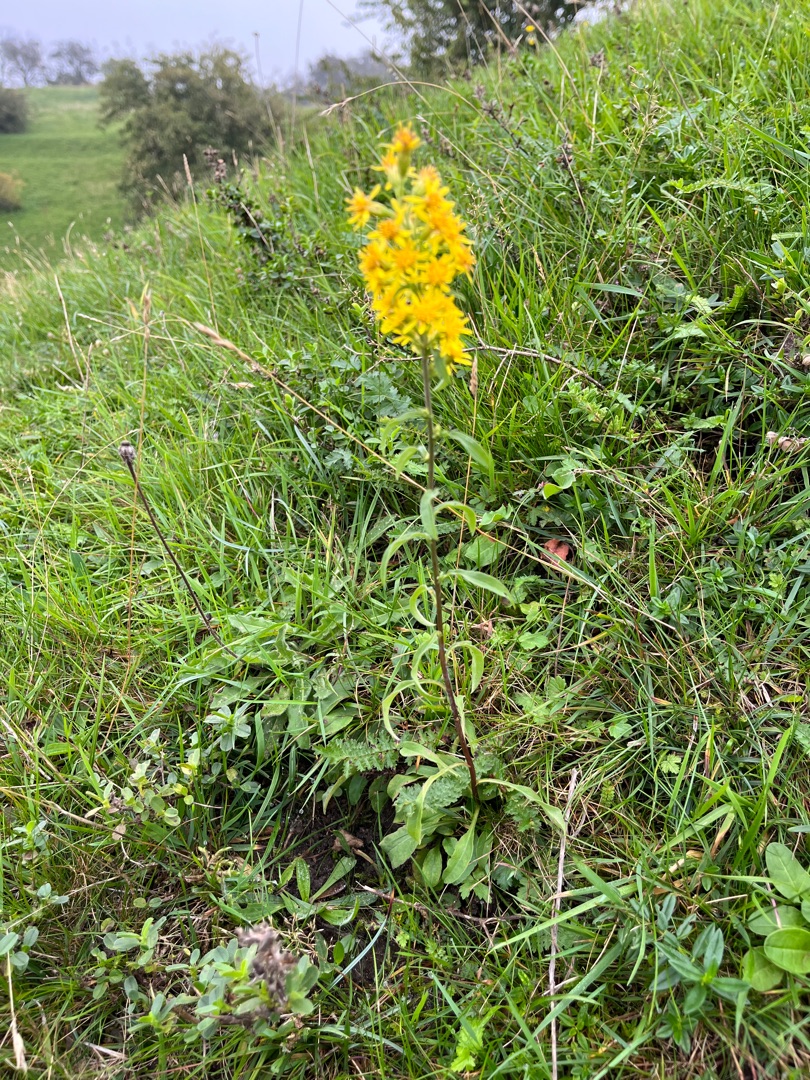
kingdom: Plantae
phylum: Tracheophyta
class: Magnoliopsida
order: Asterales
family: Asteraceae
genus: Solidago
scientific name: Solidago virgaurea
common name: Almindelig gyldenris
